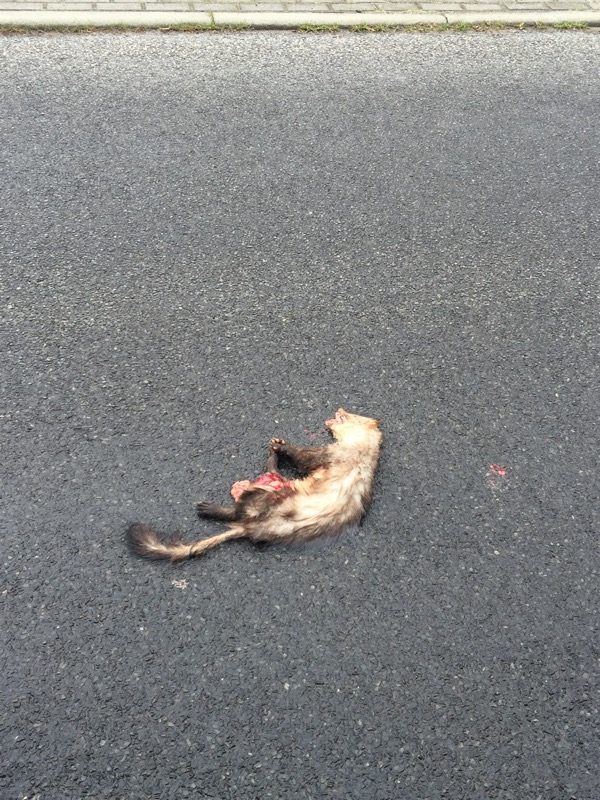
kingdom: Animalia
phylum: Chordata
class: Mammalia
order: Carnivora
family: Mustelidae
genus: Martes
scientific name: Martes
